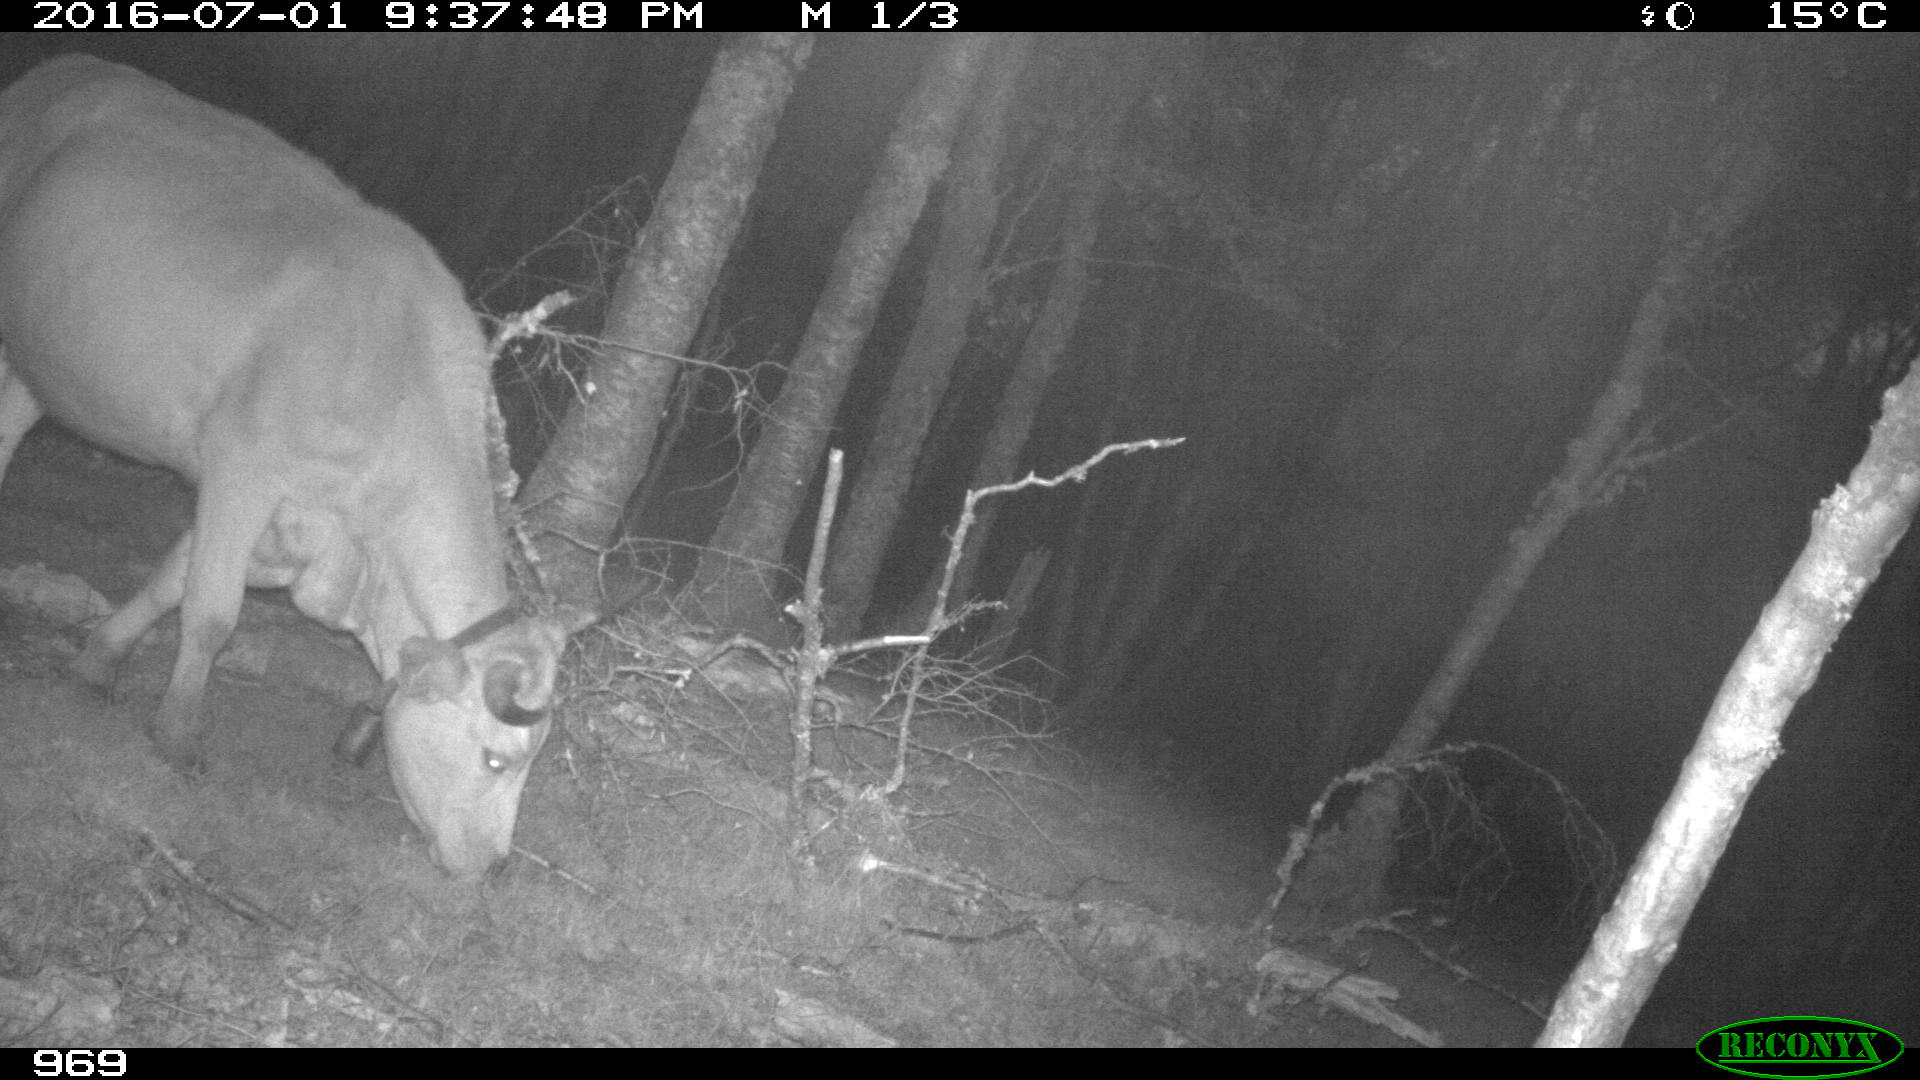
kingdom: Animalia
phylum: Chordata
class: Mammalia
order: Artiodactyla
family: Bovidae
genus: Bos
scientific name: Bos taurus
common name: Domesticated cattle
